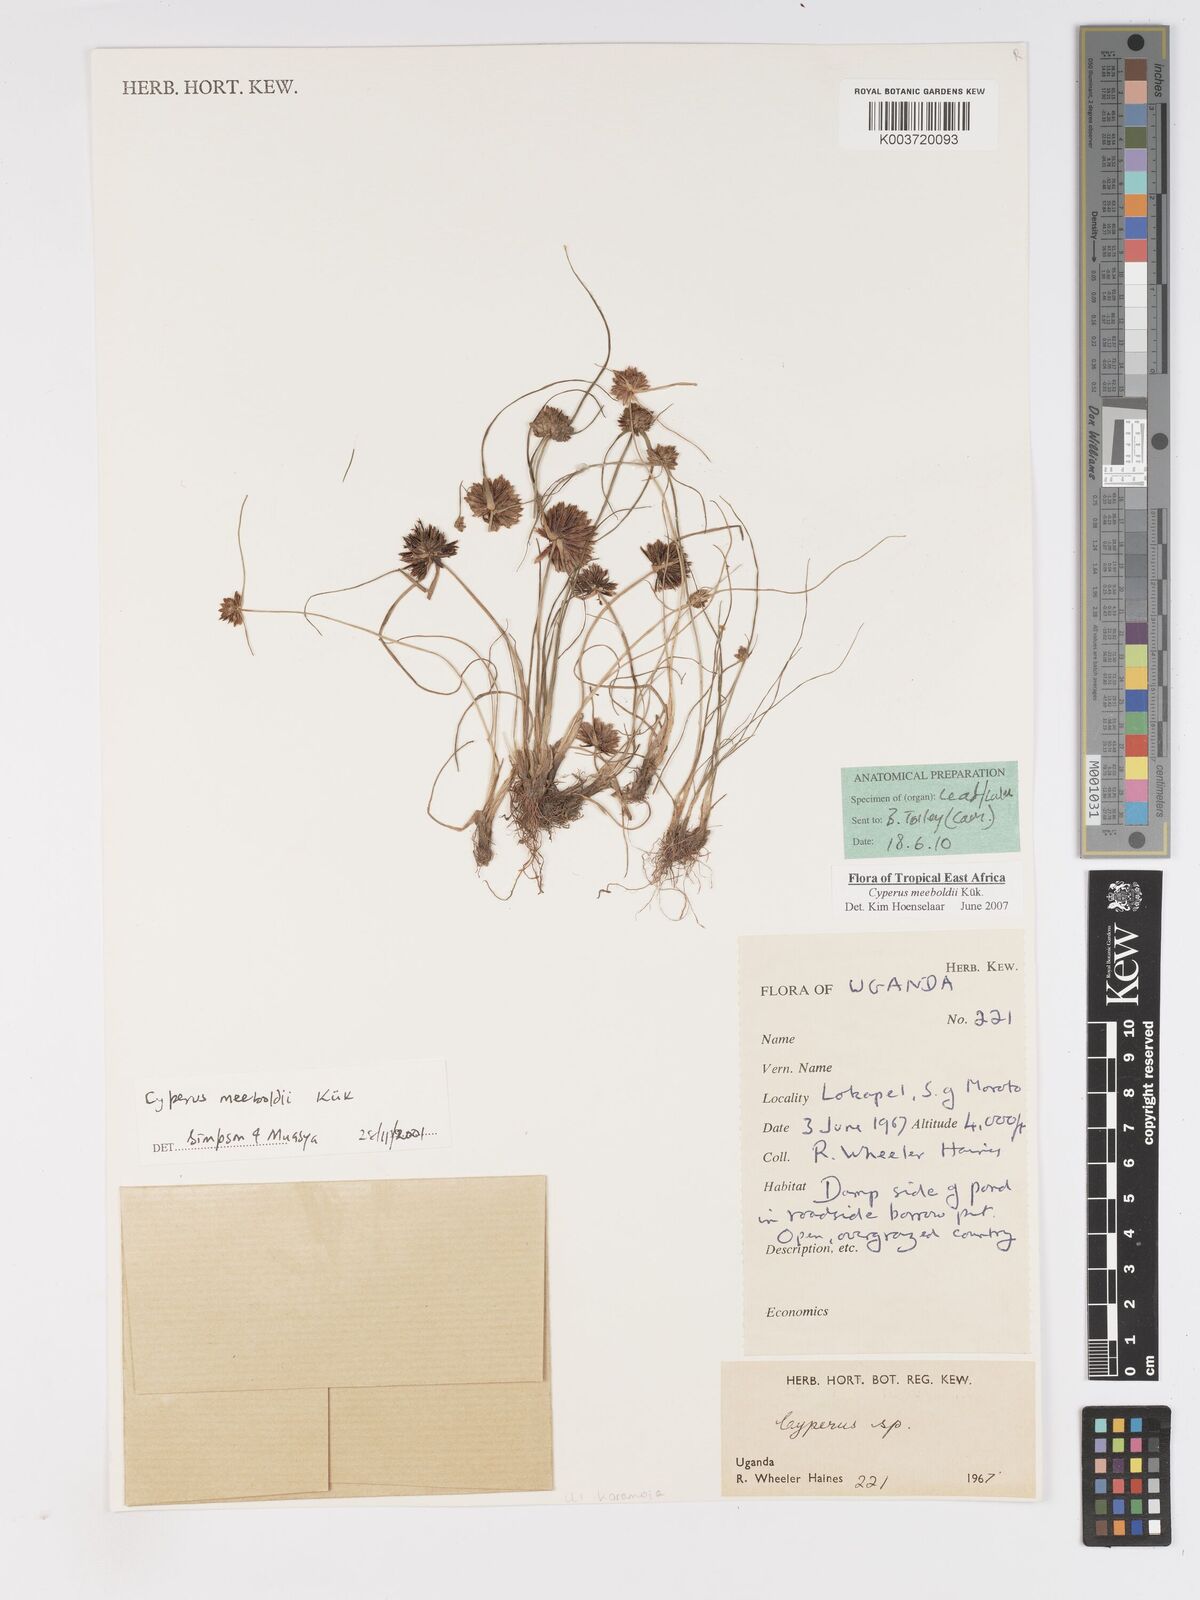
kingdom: Plantae
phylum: Tracheophyta
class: Liliopsida
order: Poales
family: Cyperaceae
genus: Cyperus
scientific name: Cyperus meeboldii
